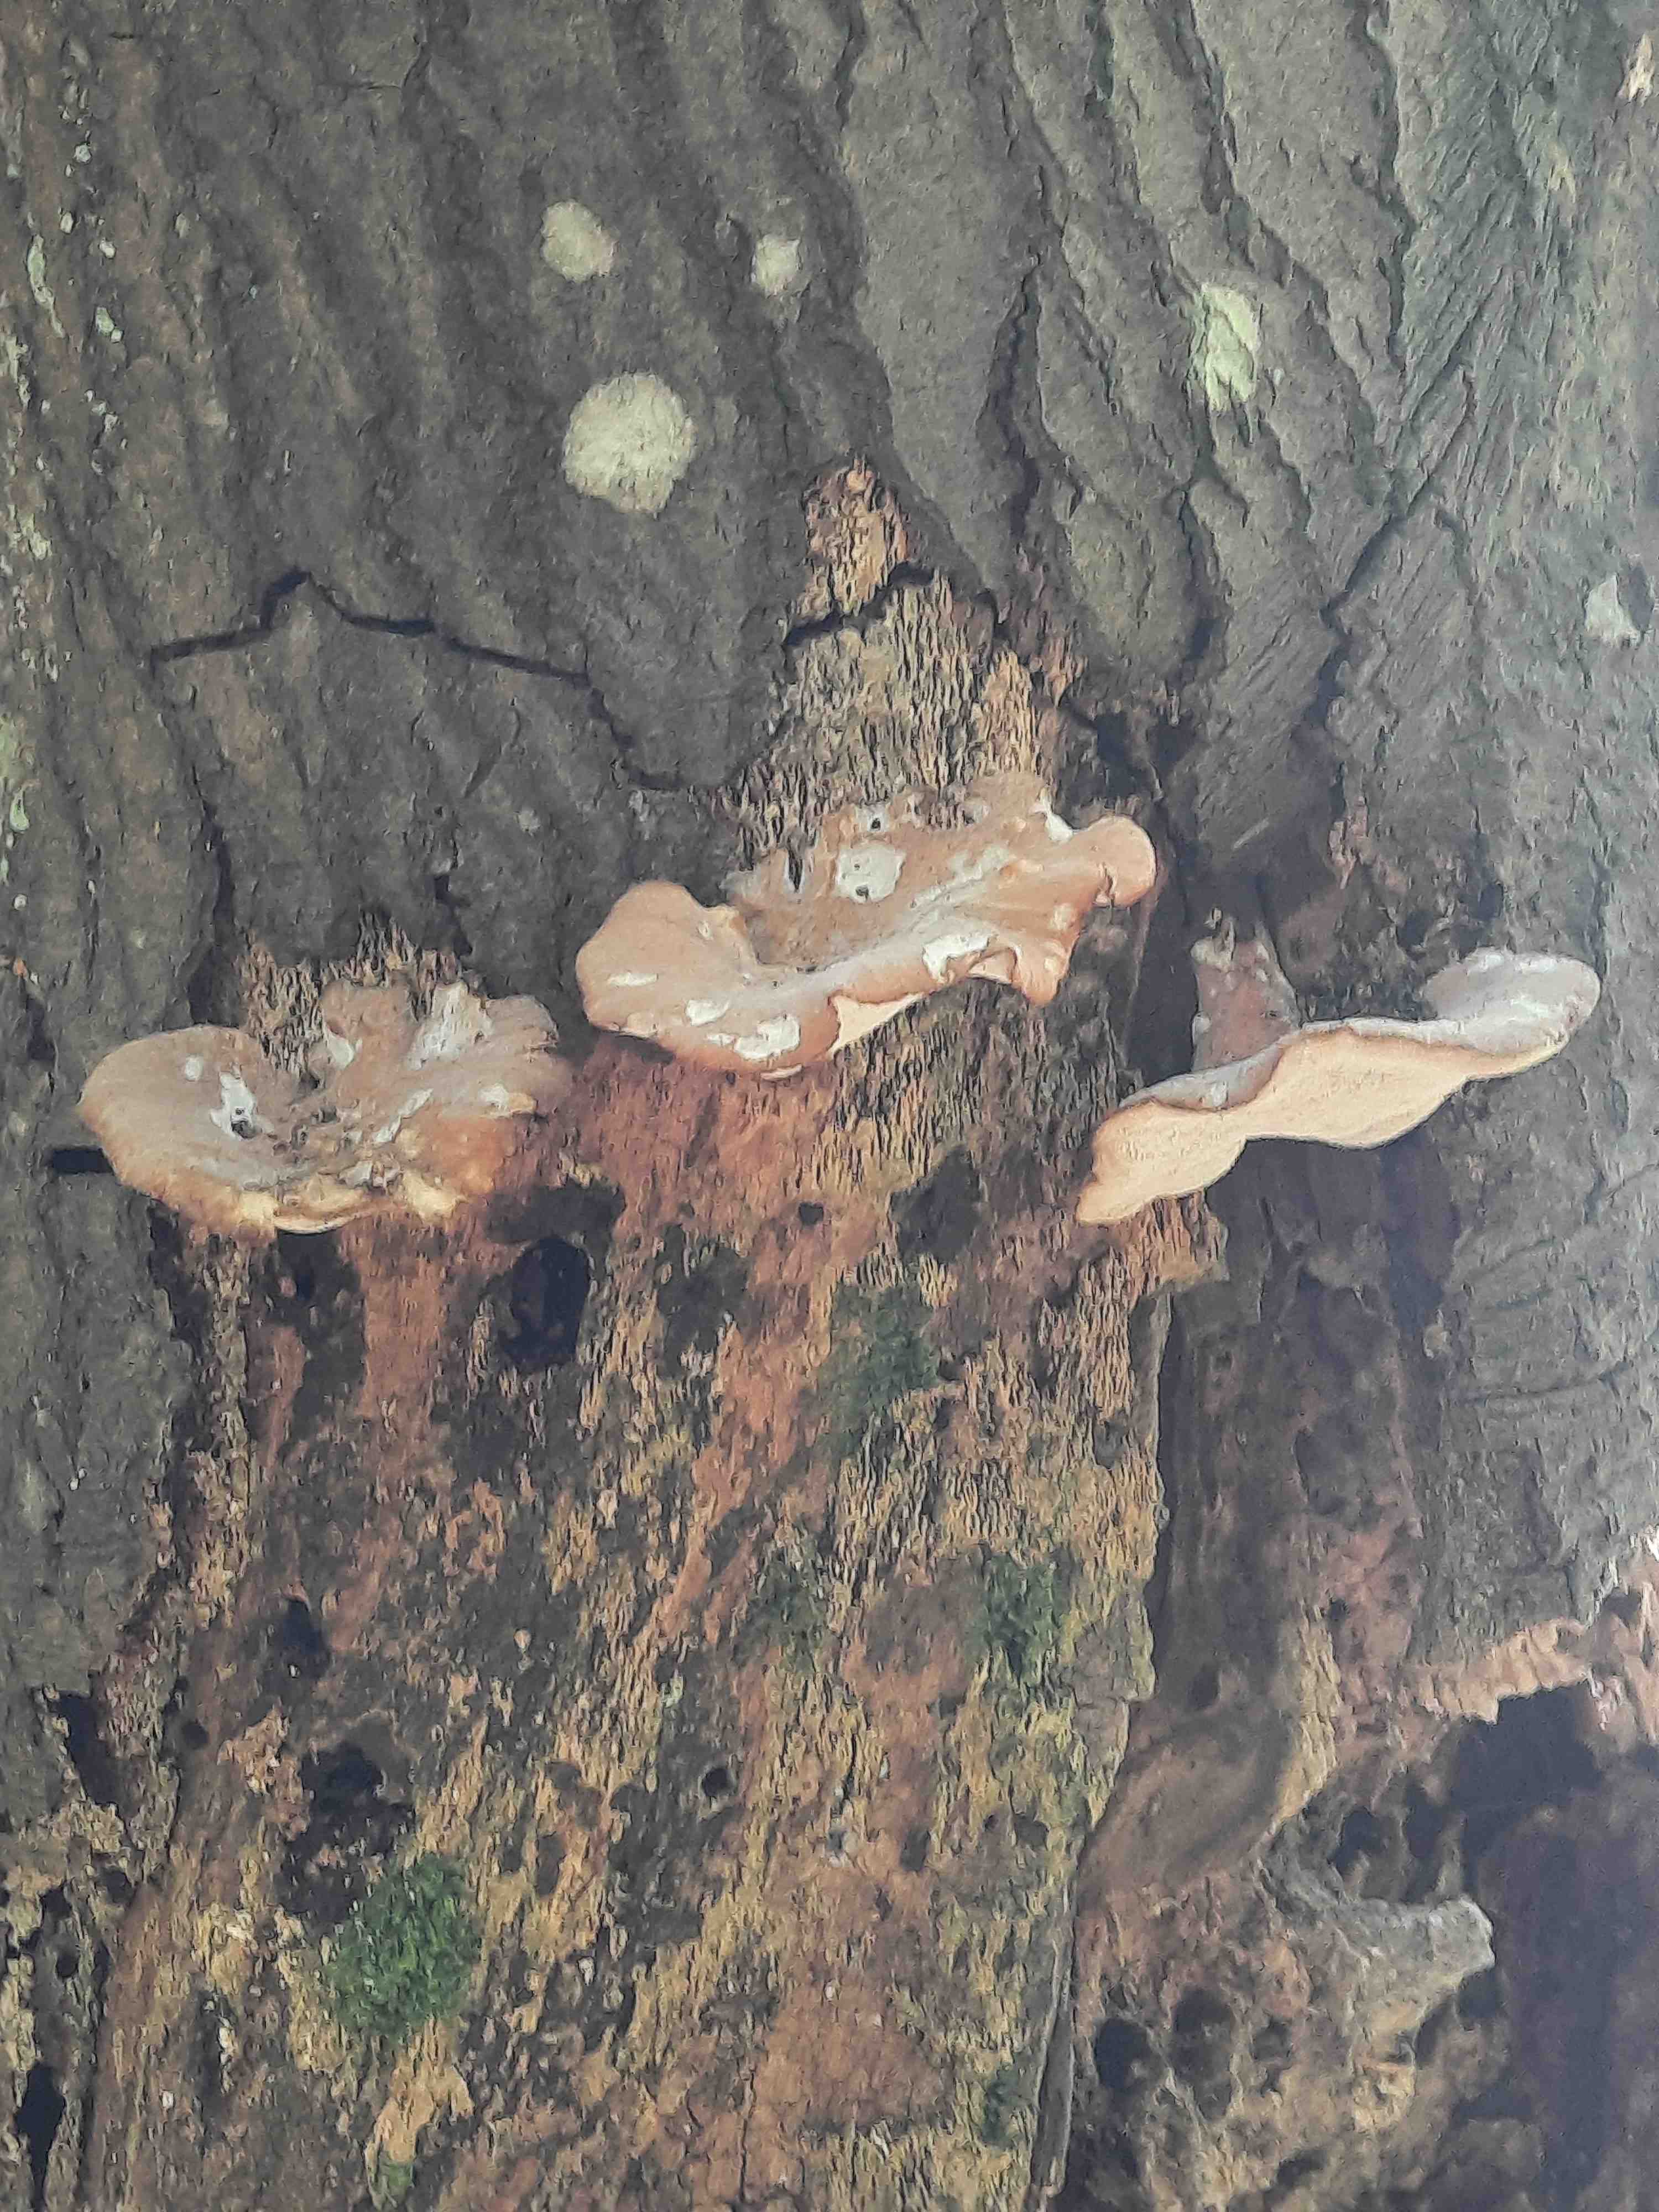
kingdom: Fungi
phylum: Basidiomycota
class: Agaricomycetes
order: Polyporales
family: Polyporaceae
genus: Cerioporus
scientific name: Cerioporus varius
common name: foranderlig stilkporesvamp
